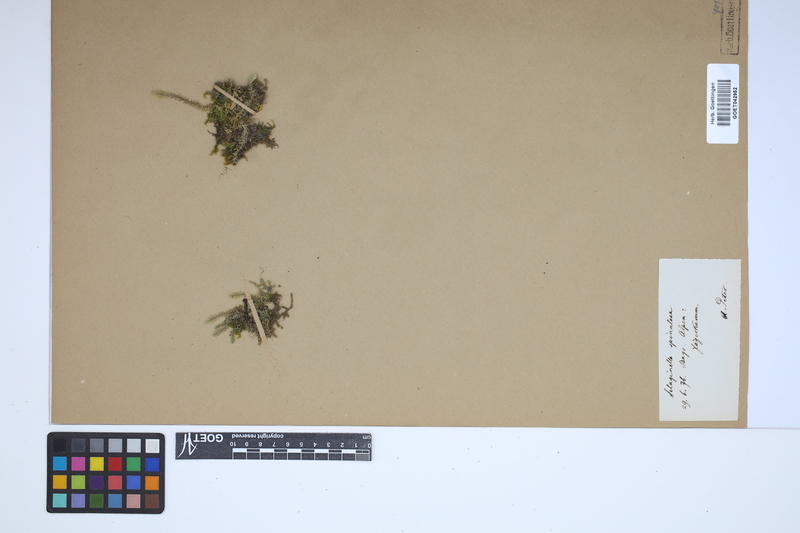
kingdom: Plantae
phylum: Tracheophyta
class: Lycopodiopsida
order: Selaginellales
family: Selaginellaceae
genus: Selaginella
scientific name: Selaginella selaginoides
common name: Prickly mountain-moss
